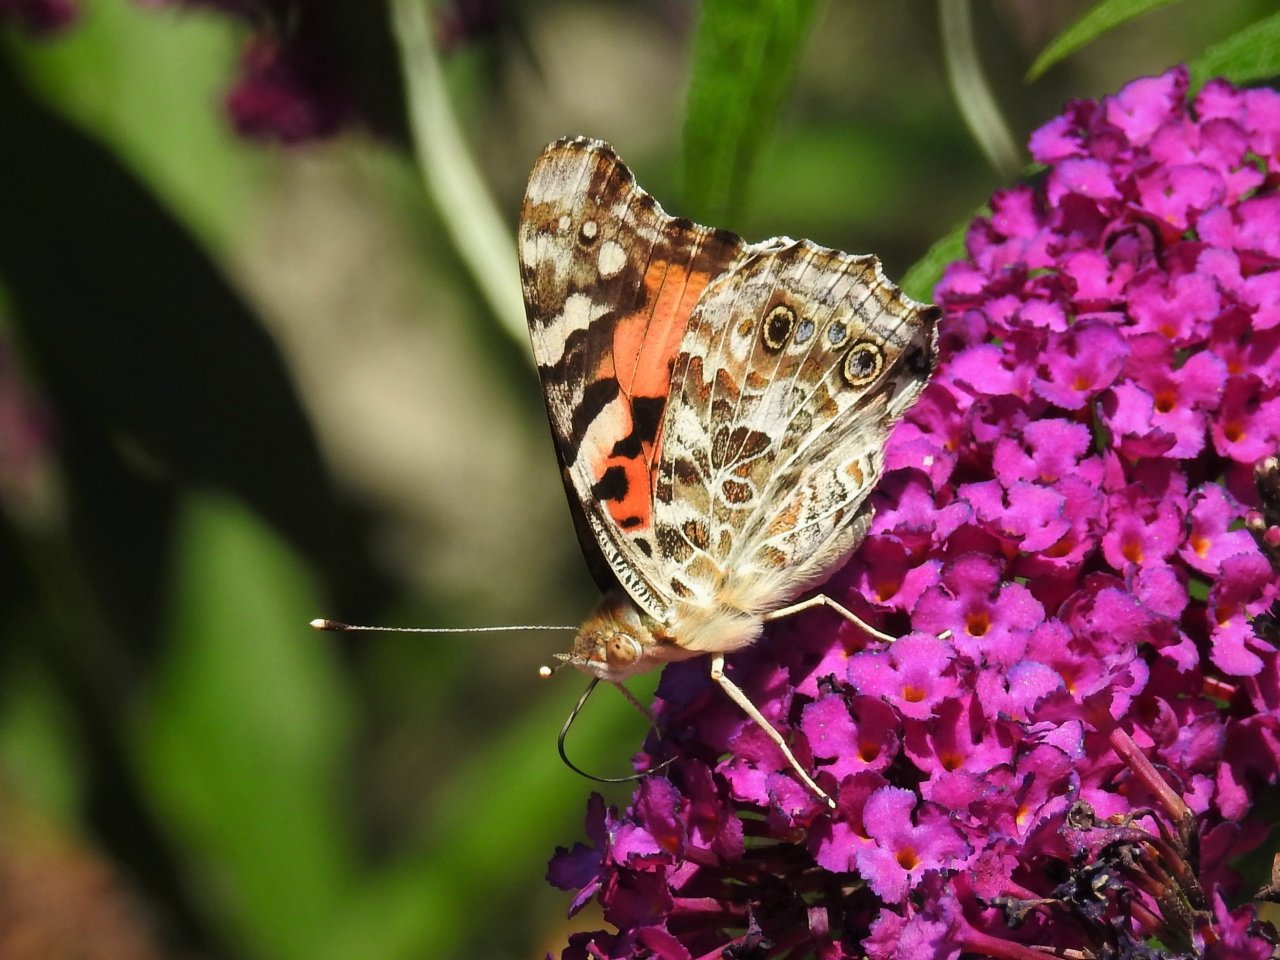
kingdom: Animalia
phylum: Arthropoda
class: Insecta
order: Lepidoptera
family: Nymphalidae
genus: Vanessa
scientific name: Vanessa cardui
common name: Painted Lady
